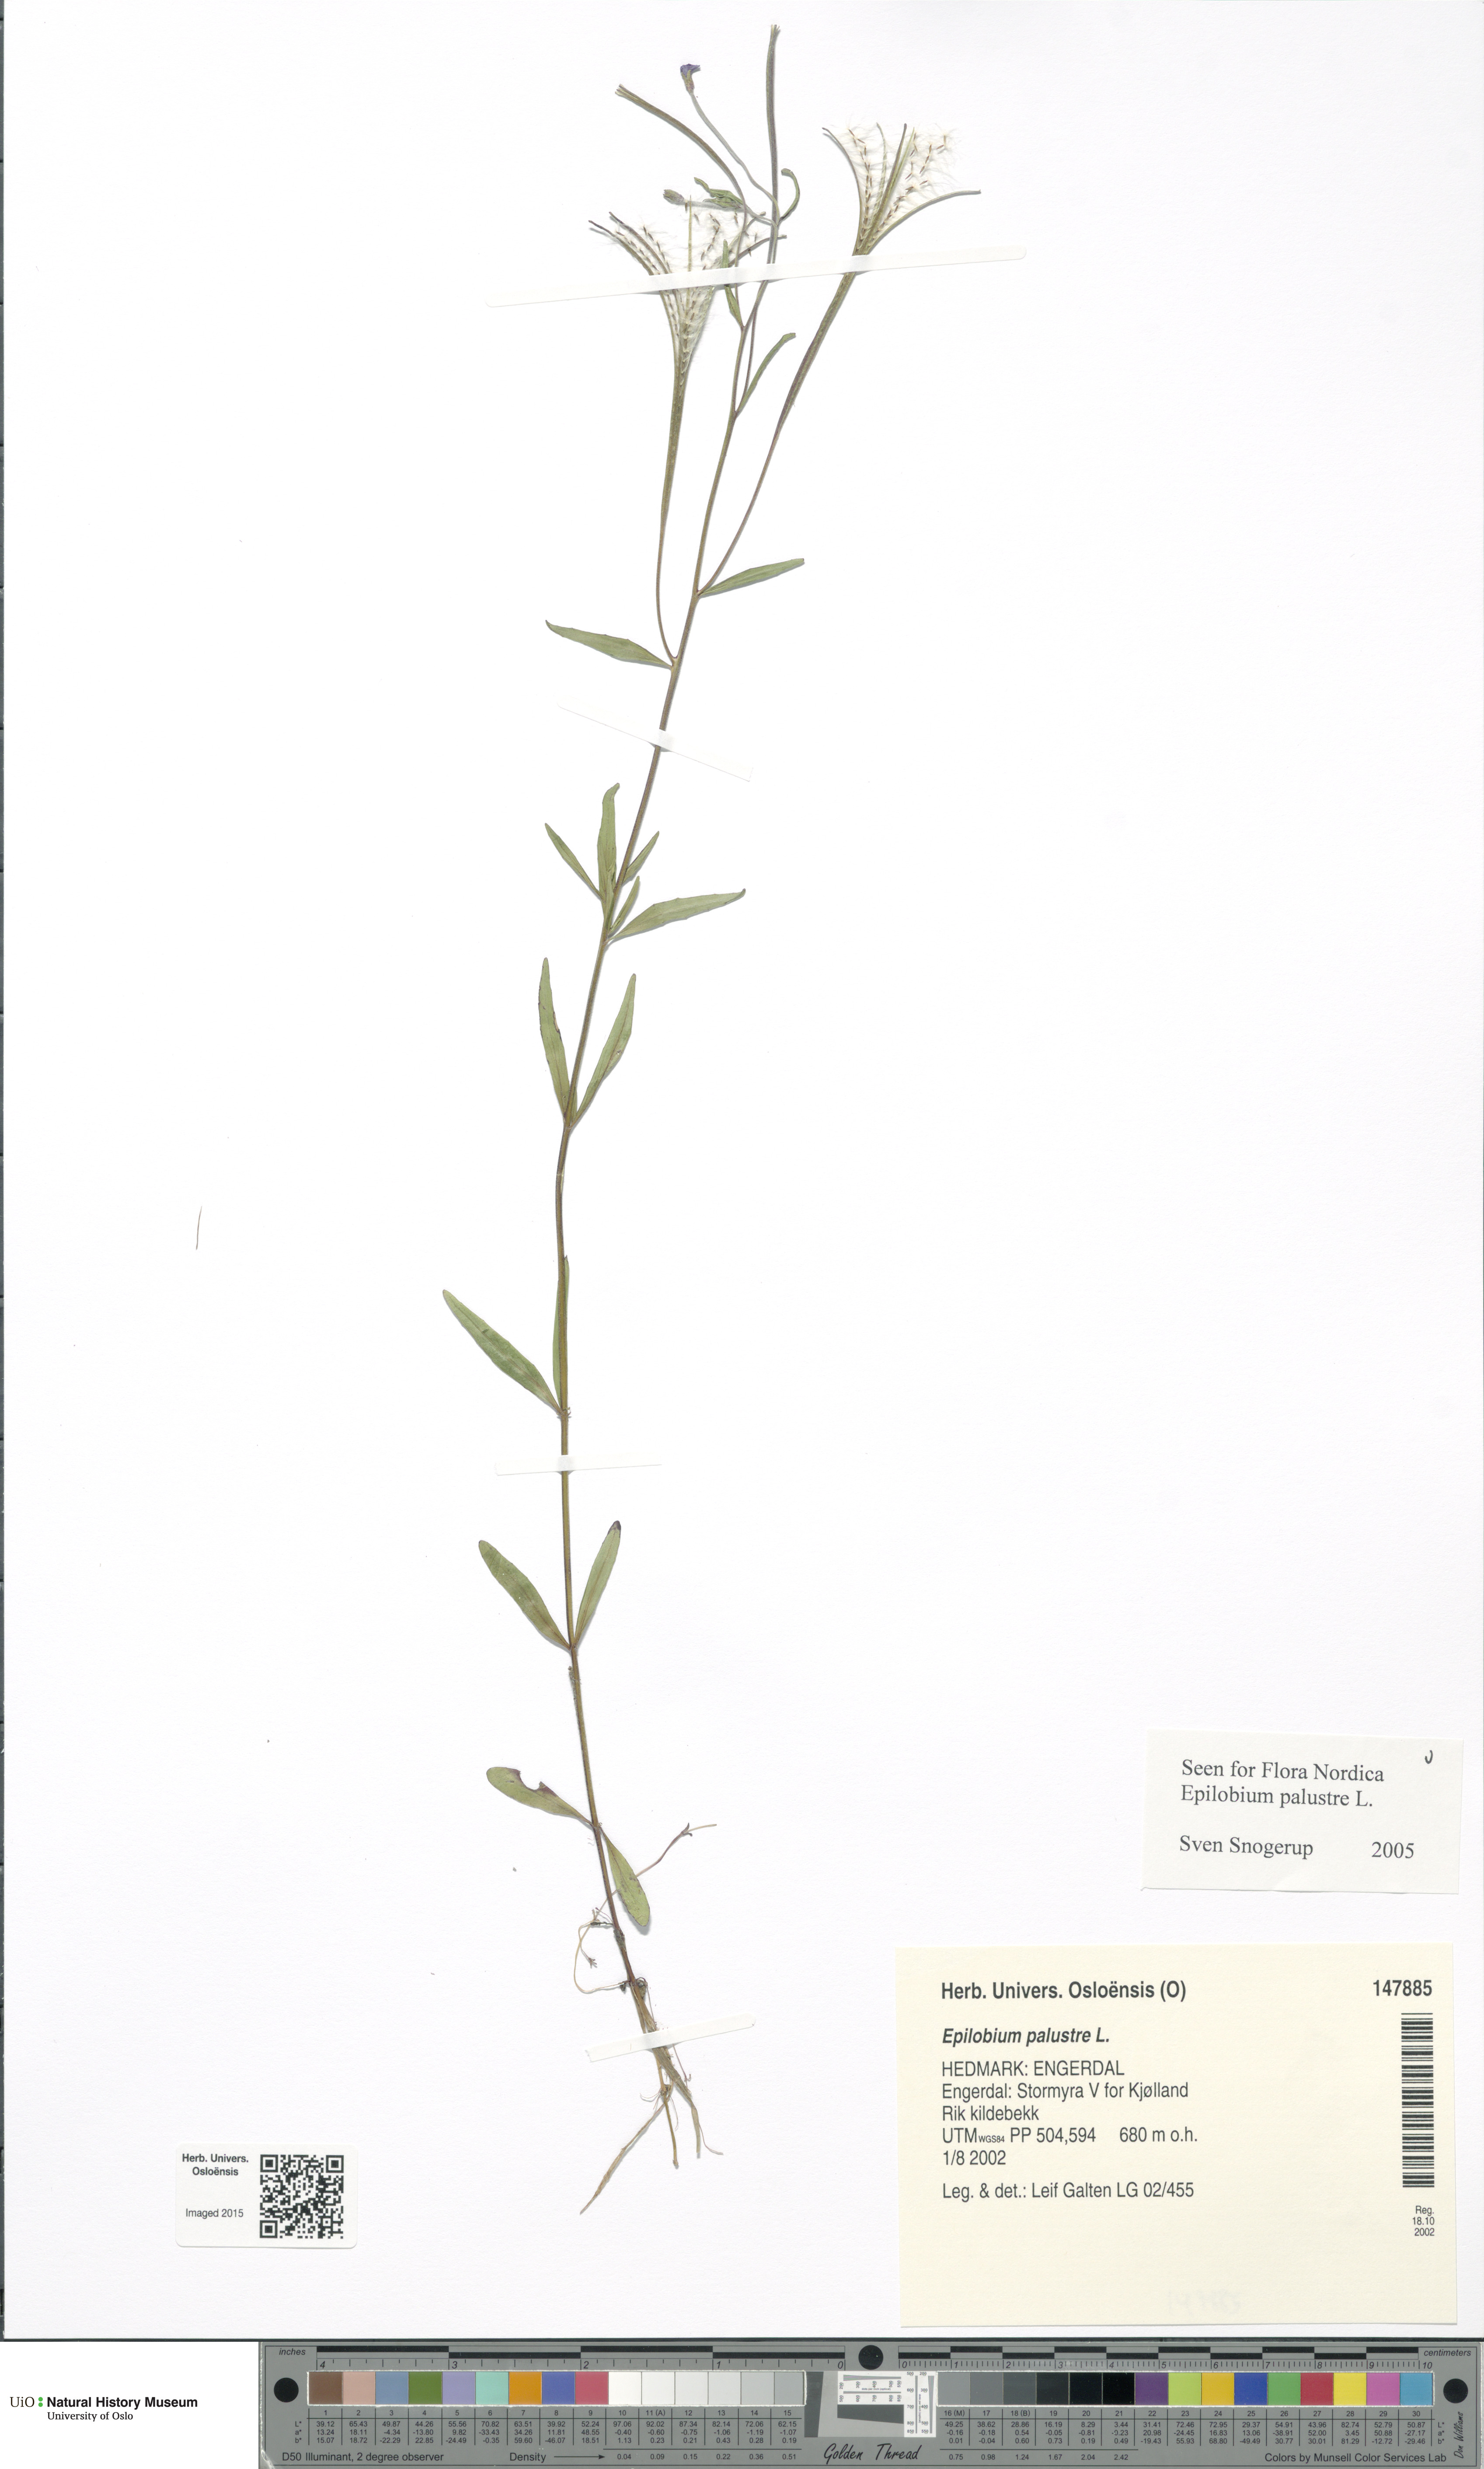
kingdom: Plantae
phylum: Tracheophyta
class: Magnoliopsida
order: Myrtales
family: Onagraceae
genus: Epilobium
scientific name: Epilobium palustre
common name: Marsh willowherb
